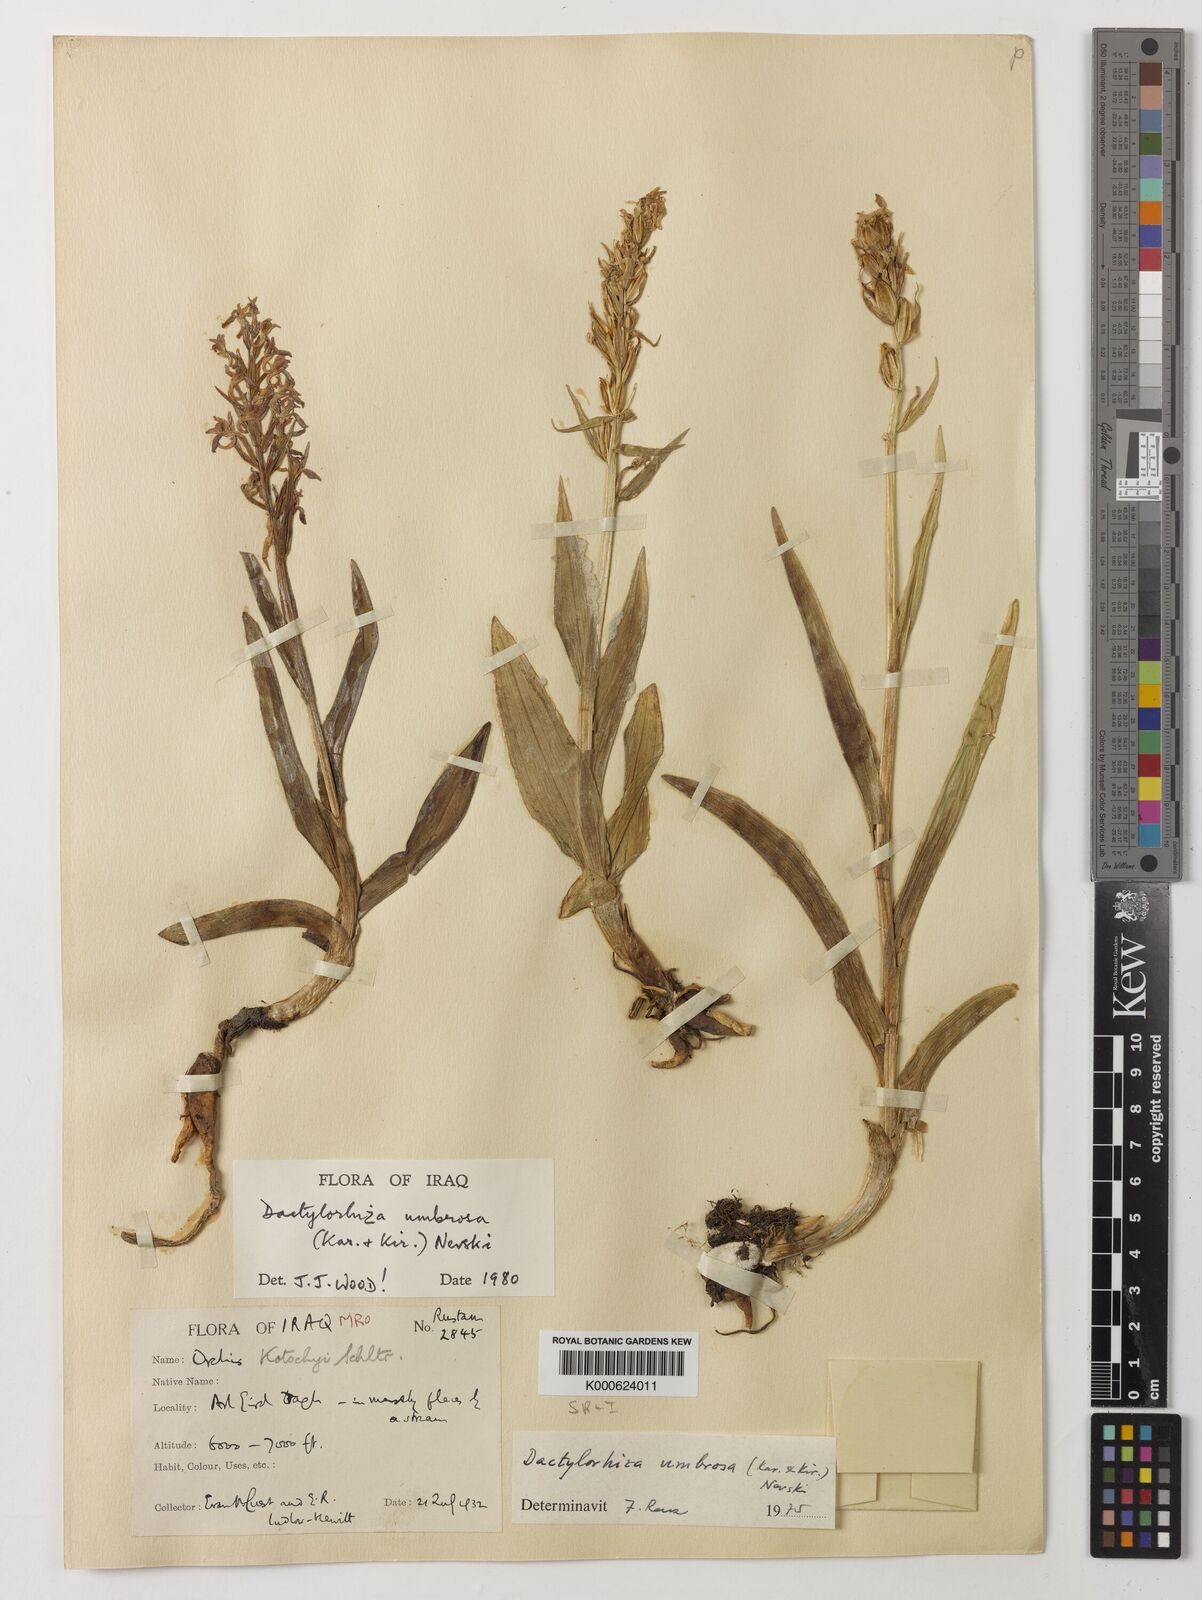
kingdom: Plantae
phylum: Tracheophyta
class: Liliopsida
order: Asparagales
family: Orchidaceae
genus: Dactylorhiza
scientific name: Dactylorhiza
